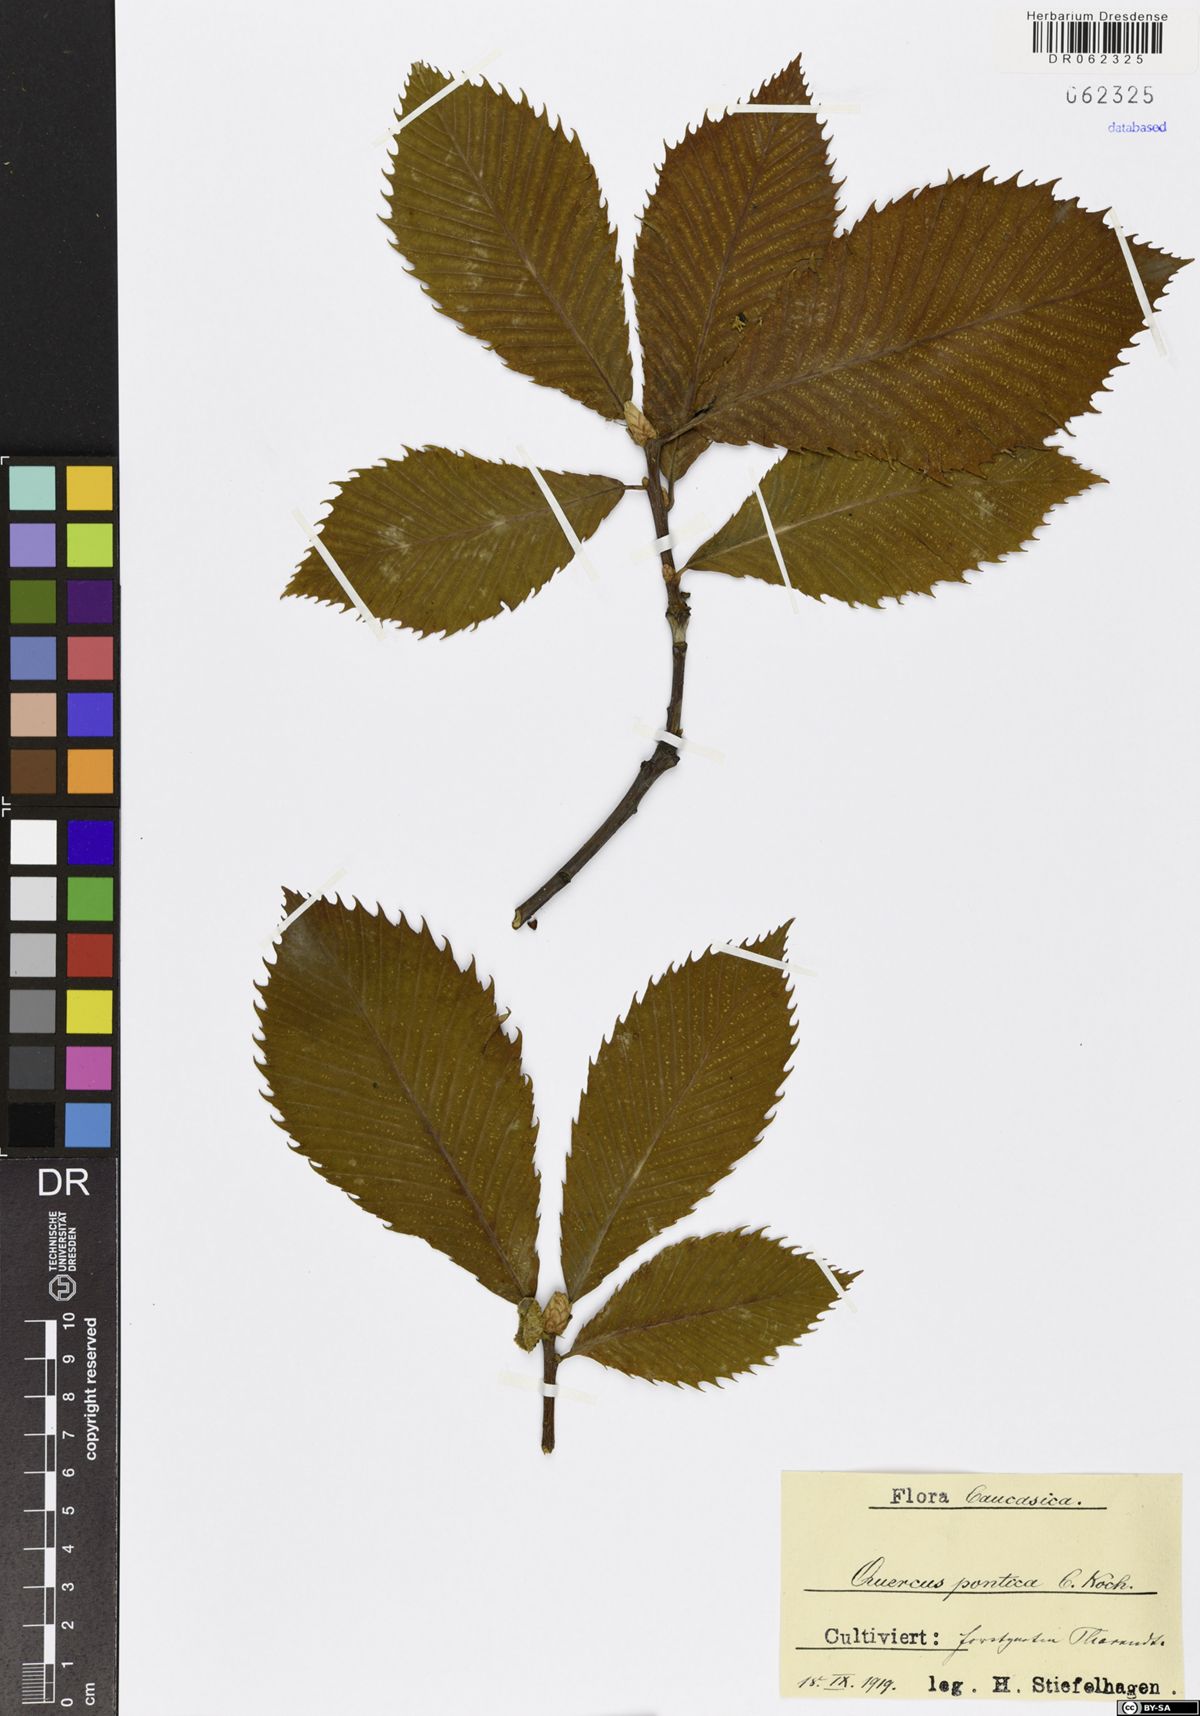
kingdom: Plantae
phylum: Tracheophyta
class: Magnoliopsida
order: Fagales
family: Fagaceae
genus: Quercus
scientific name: Quercus pontica
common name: Armenian oak
